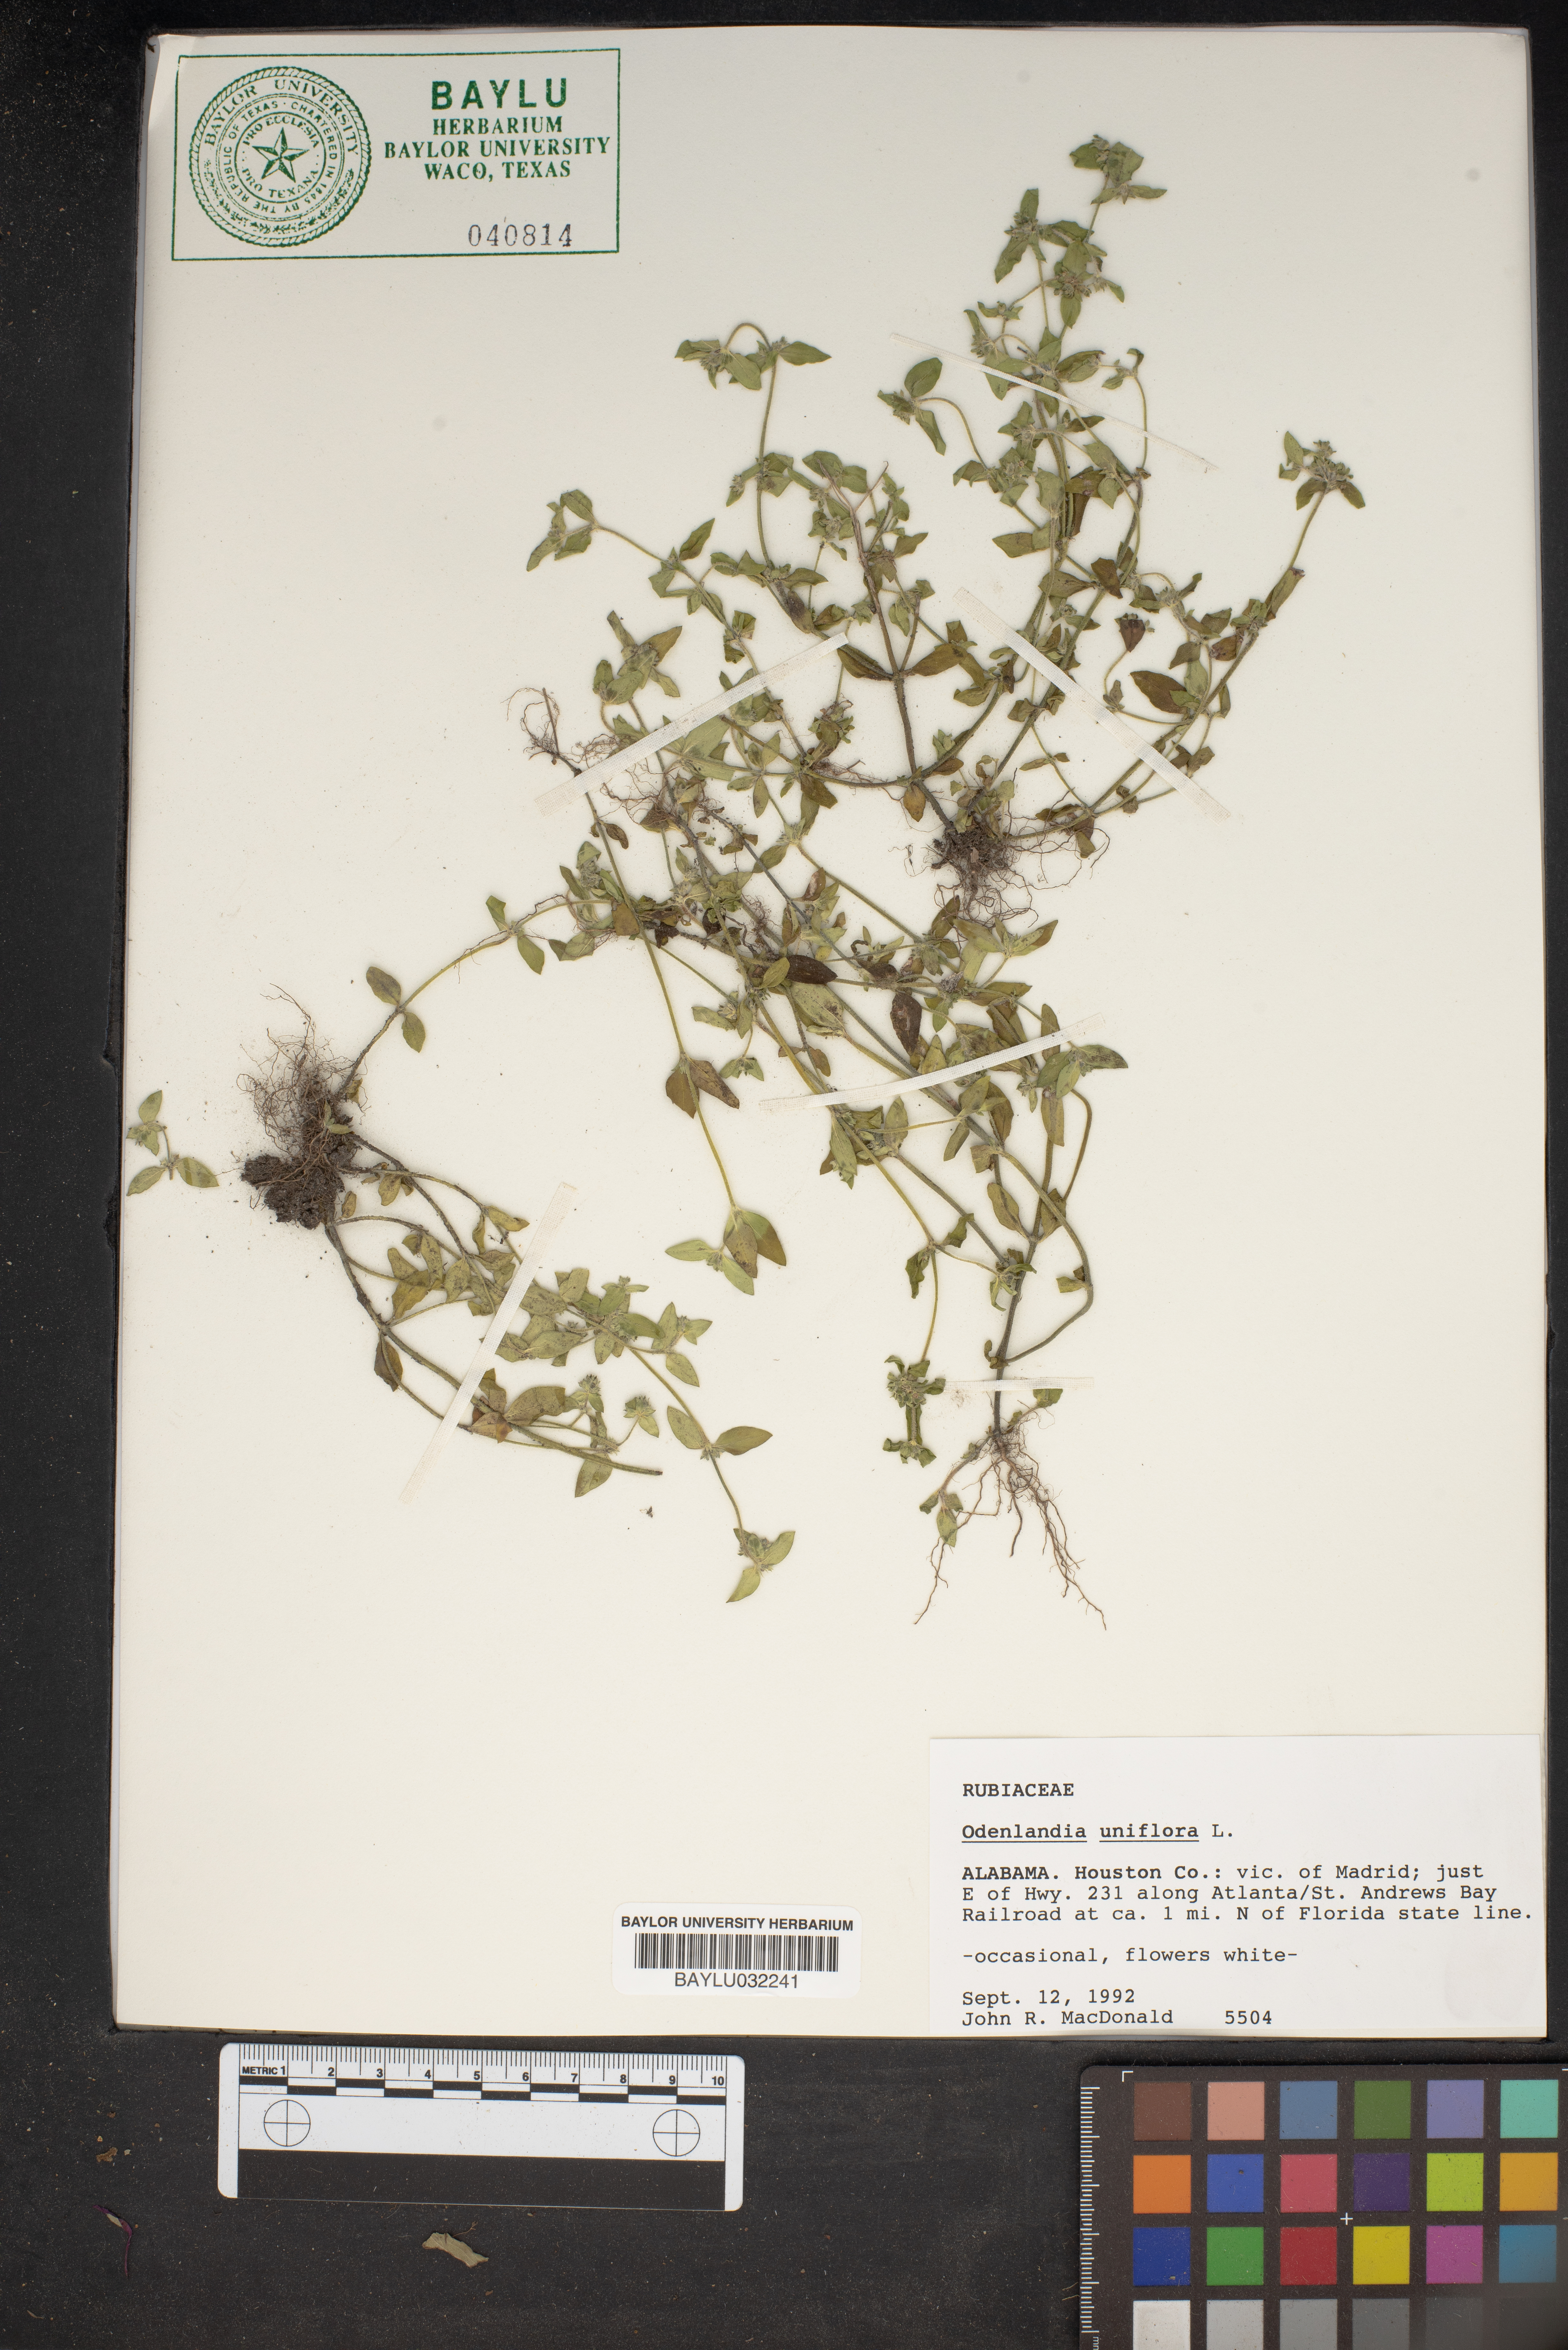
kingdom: Plantae
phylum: Tracheophyta
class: Magnoliopsida
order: Gentianales
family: Rubiaceae
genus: Edrastima
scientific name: Edrastima uniflora
